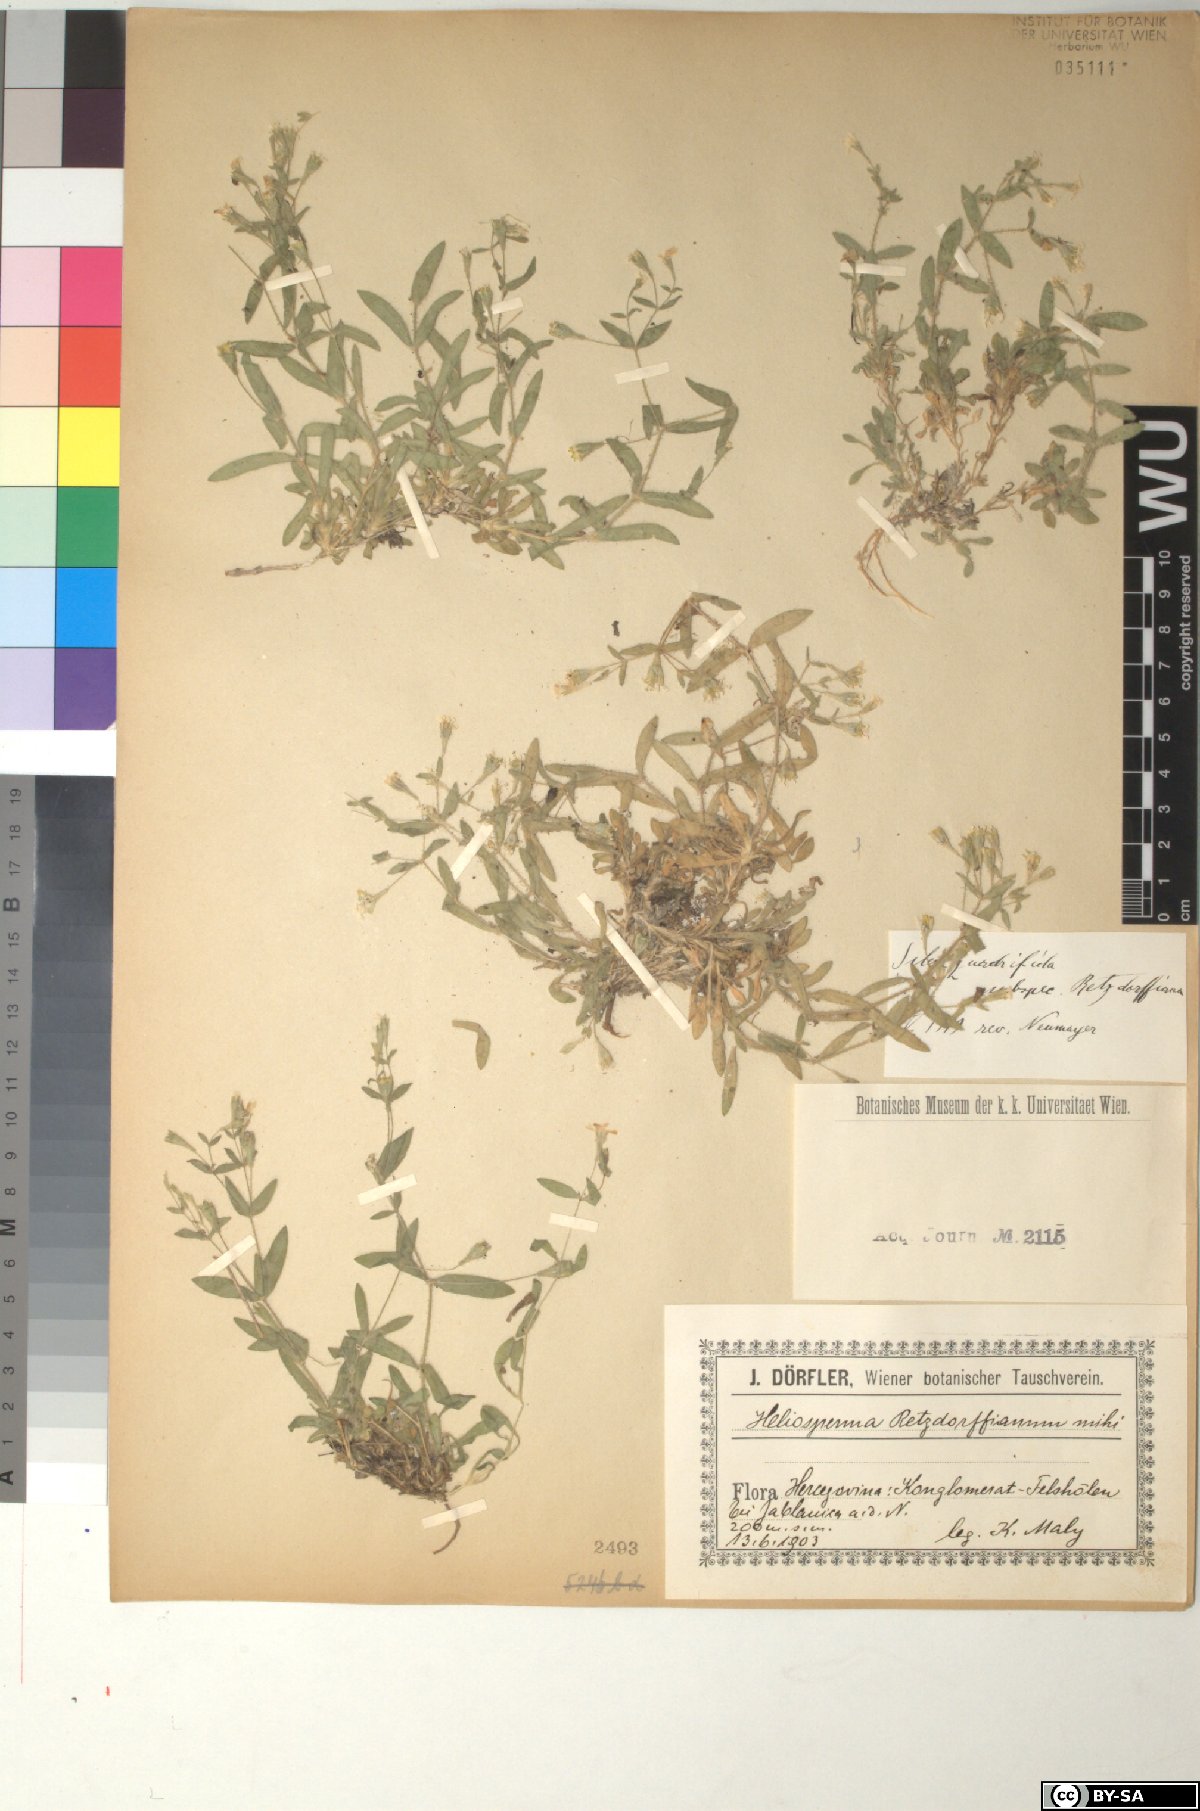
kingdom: Plantae
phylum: Tracheophyta
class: Magnoliopsida
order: Caryophyllales
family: Caryophyllaceae
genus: Heliosperma
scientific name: Heliosperma pusillum
